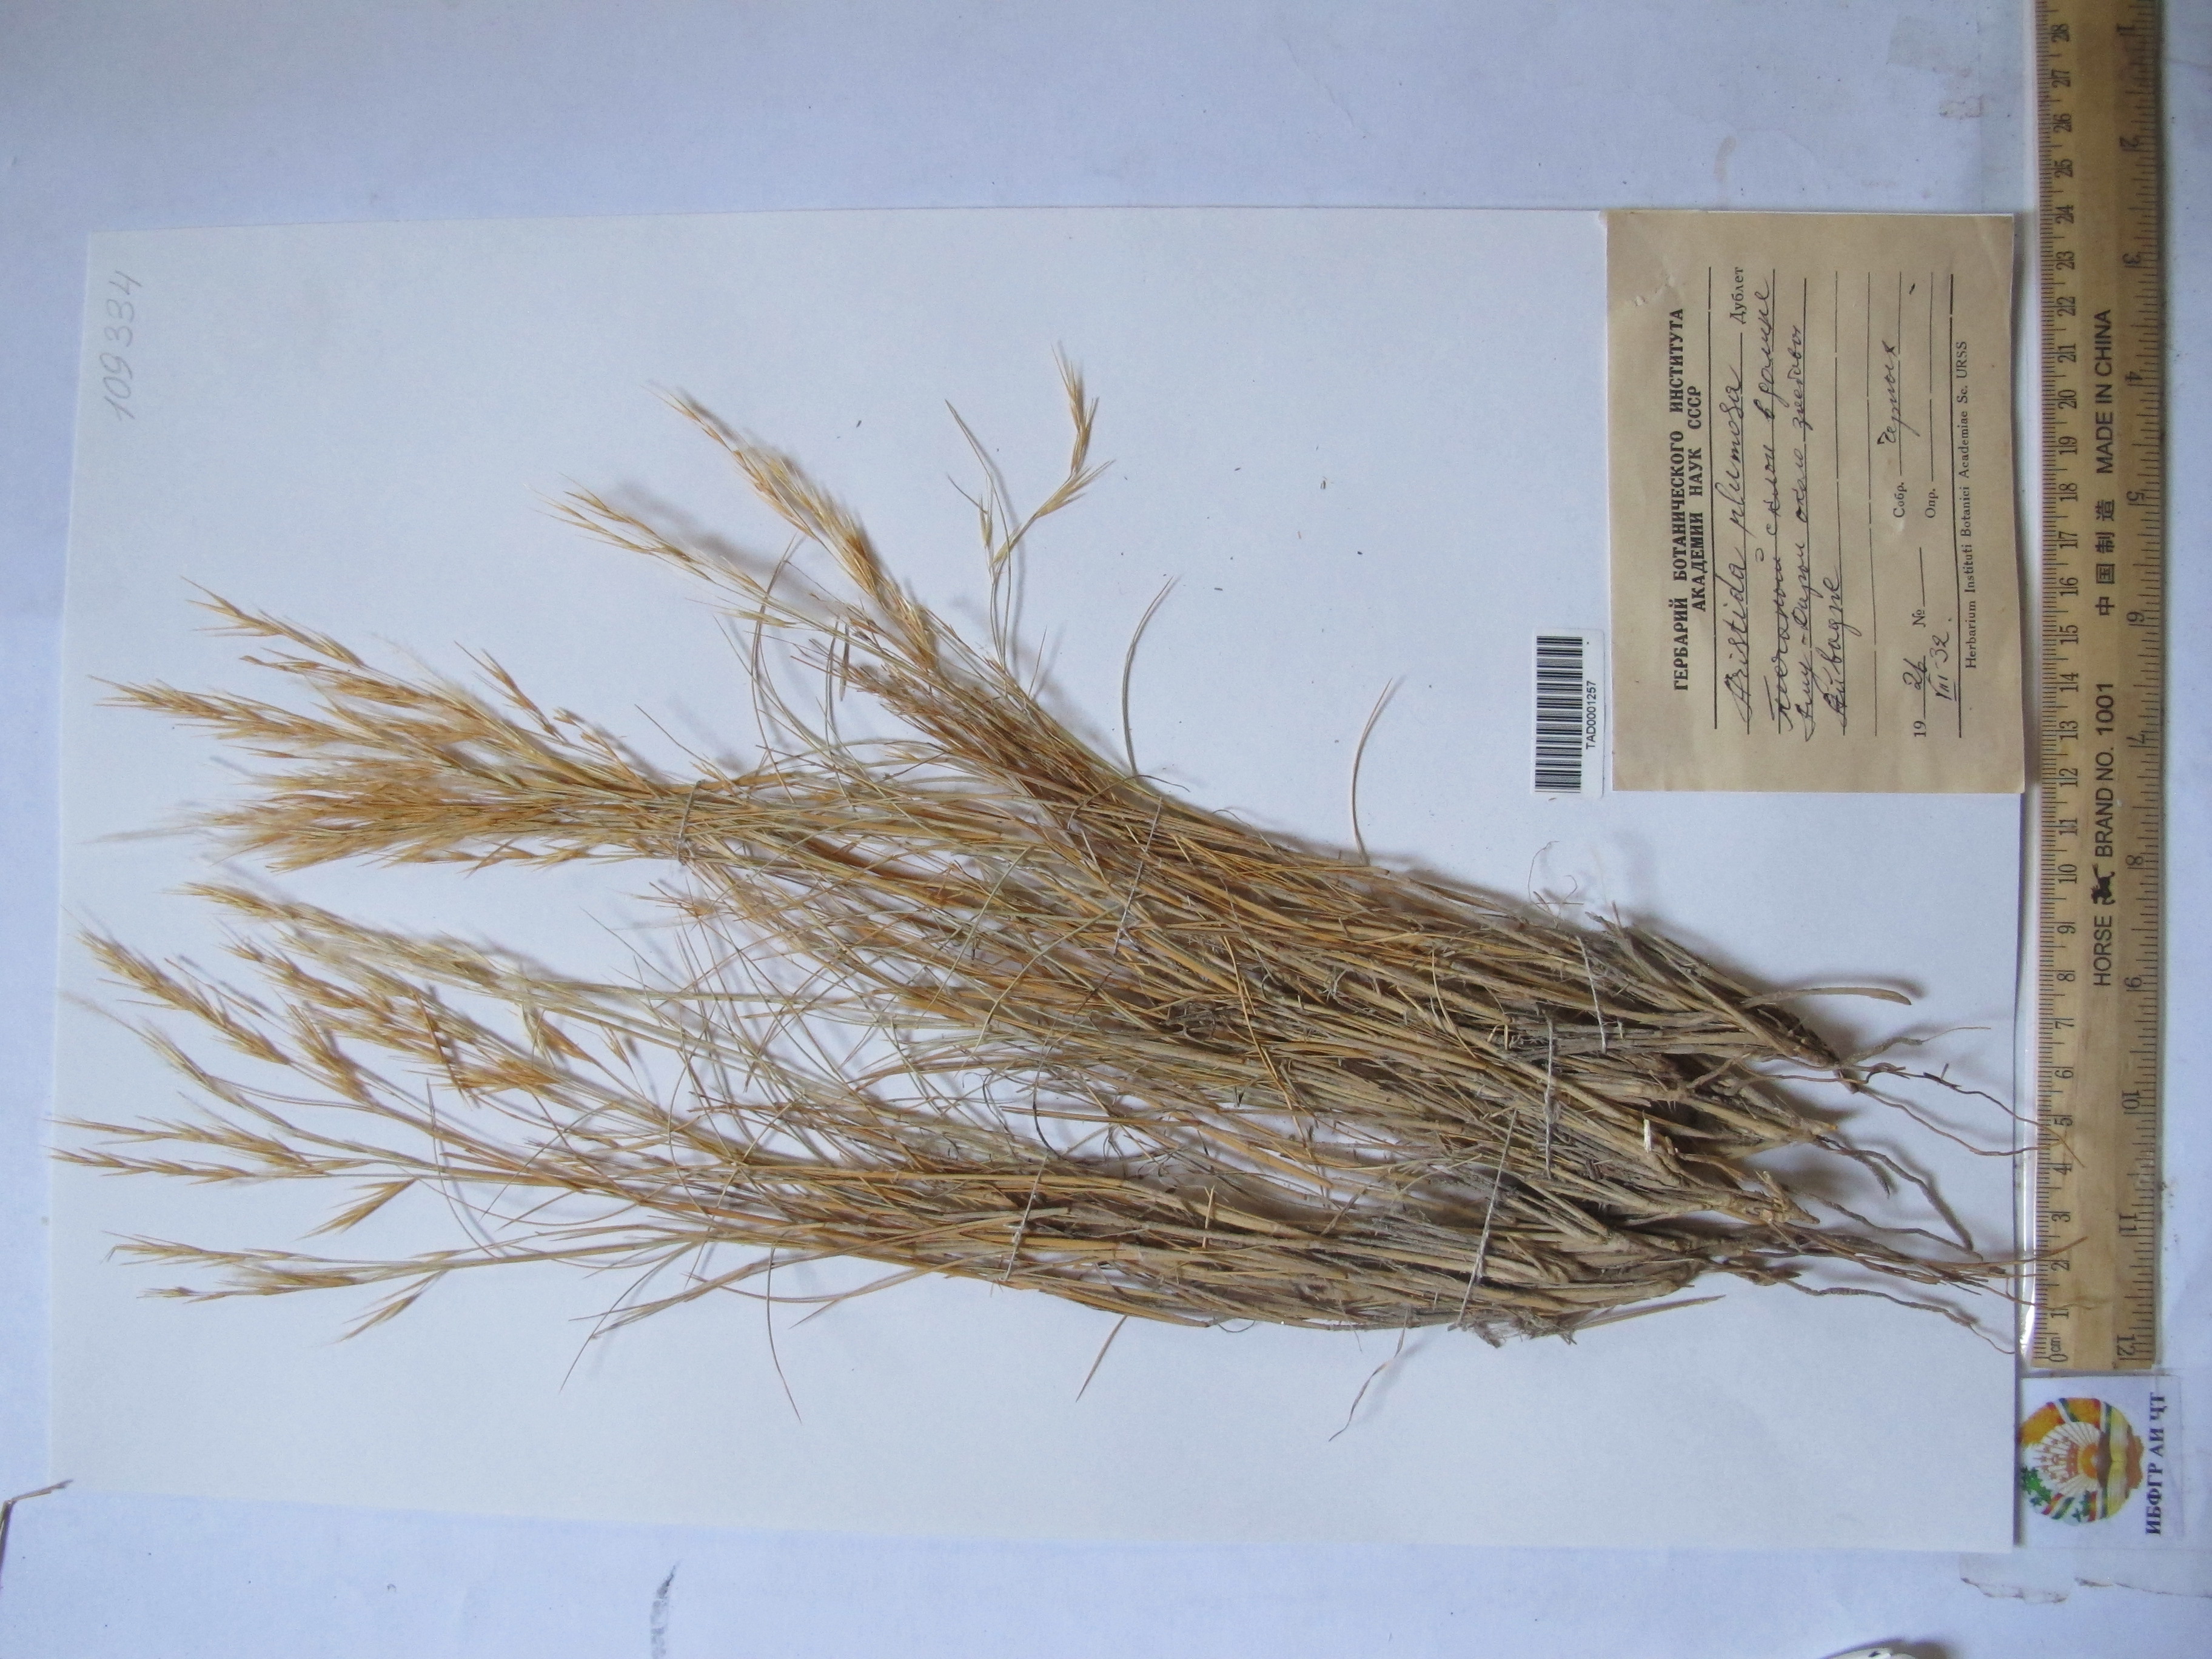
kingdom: Plantae
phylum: Tracheophyta
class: Liliopsida
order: Poales
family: Poaceae
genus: Stipagrostis
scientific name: Stipagrostis plumosa
